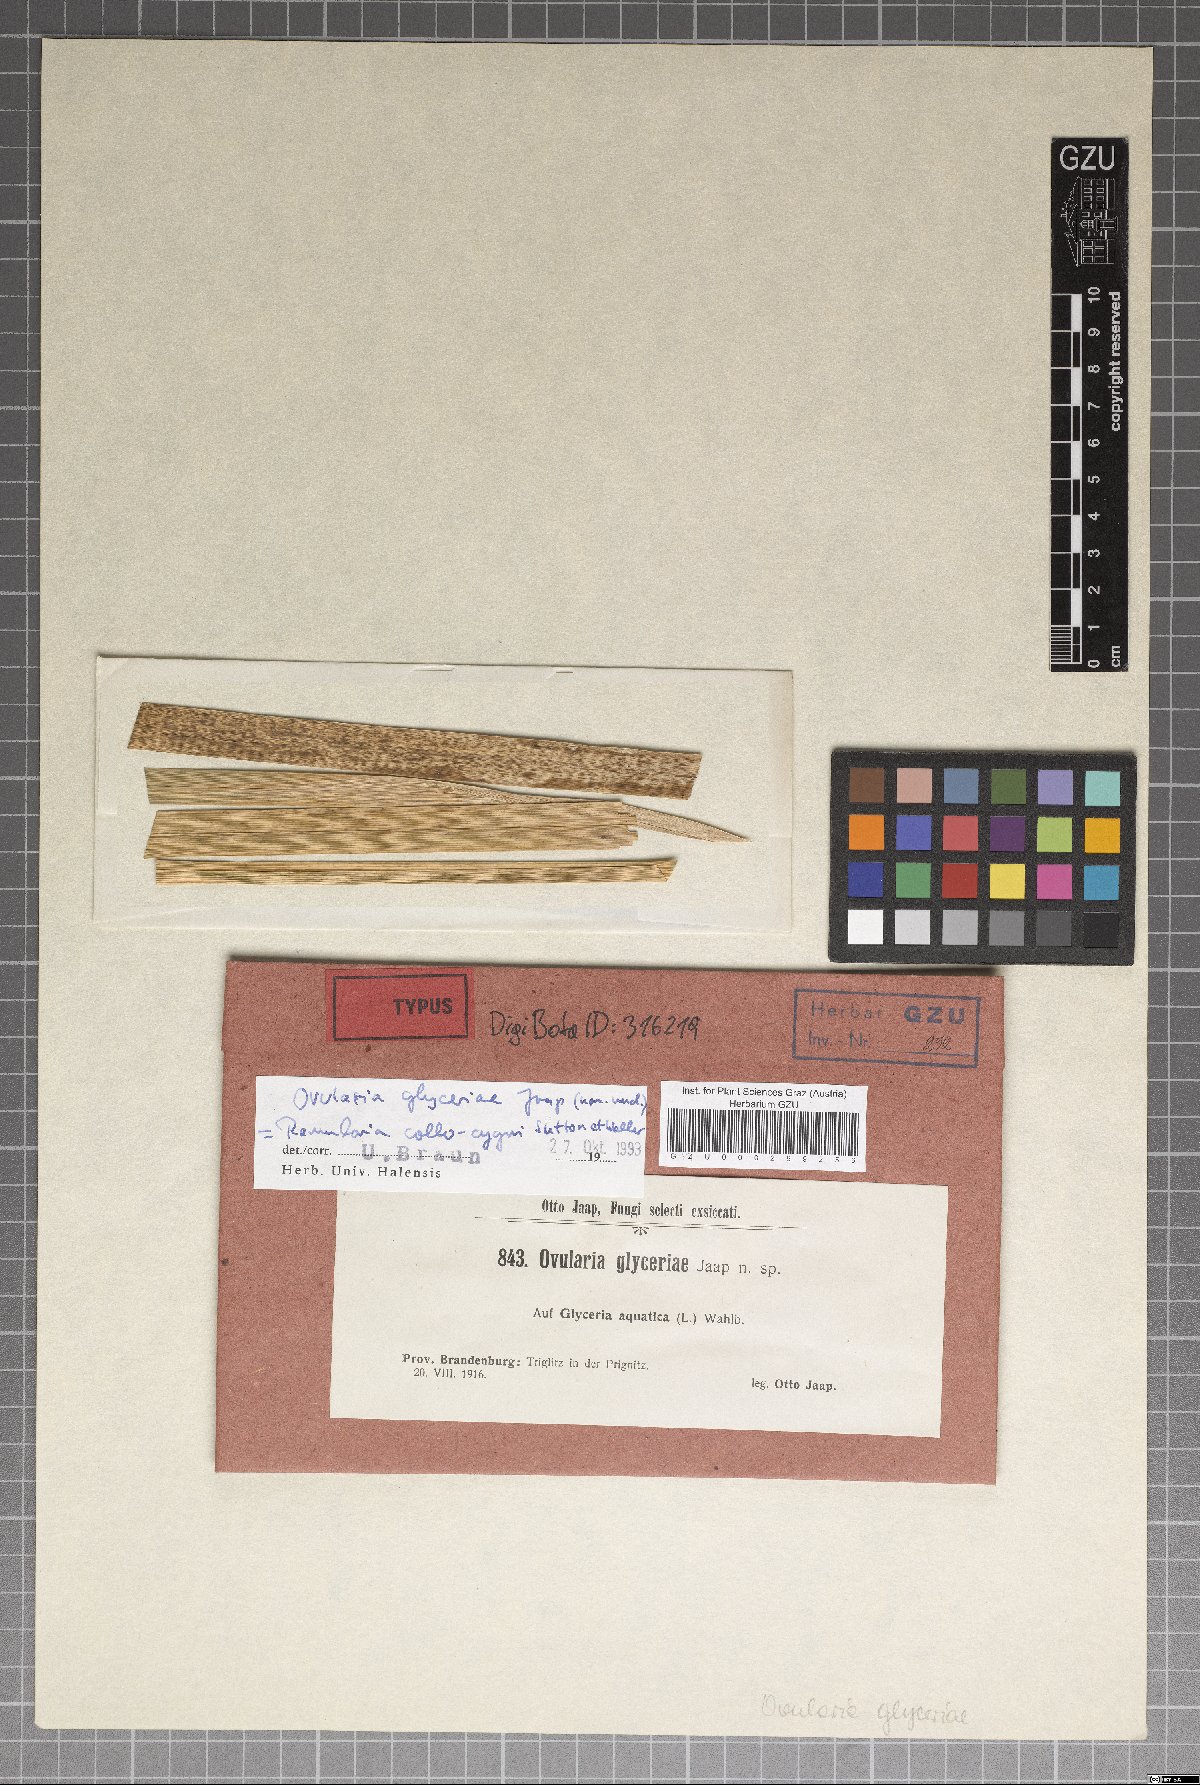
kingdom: Fungi
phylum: Ascomycota
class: Dothideomycetes
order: Mycosphaerellales
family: Mycosphaerellaceae
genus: Ovularia
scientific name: Ovularia
